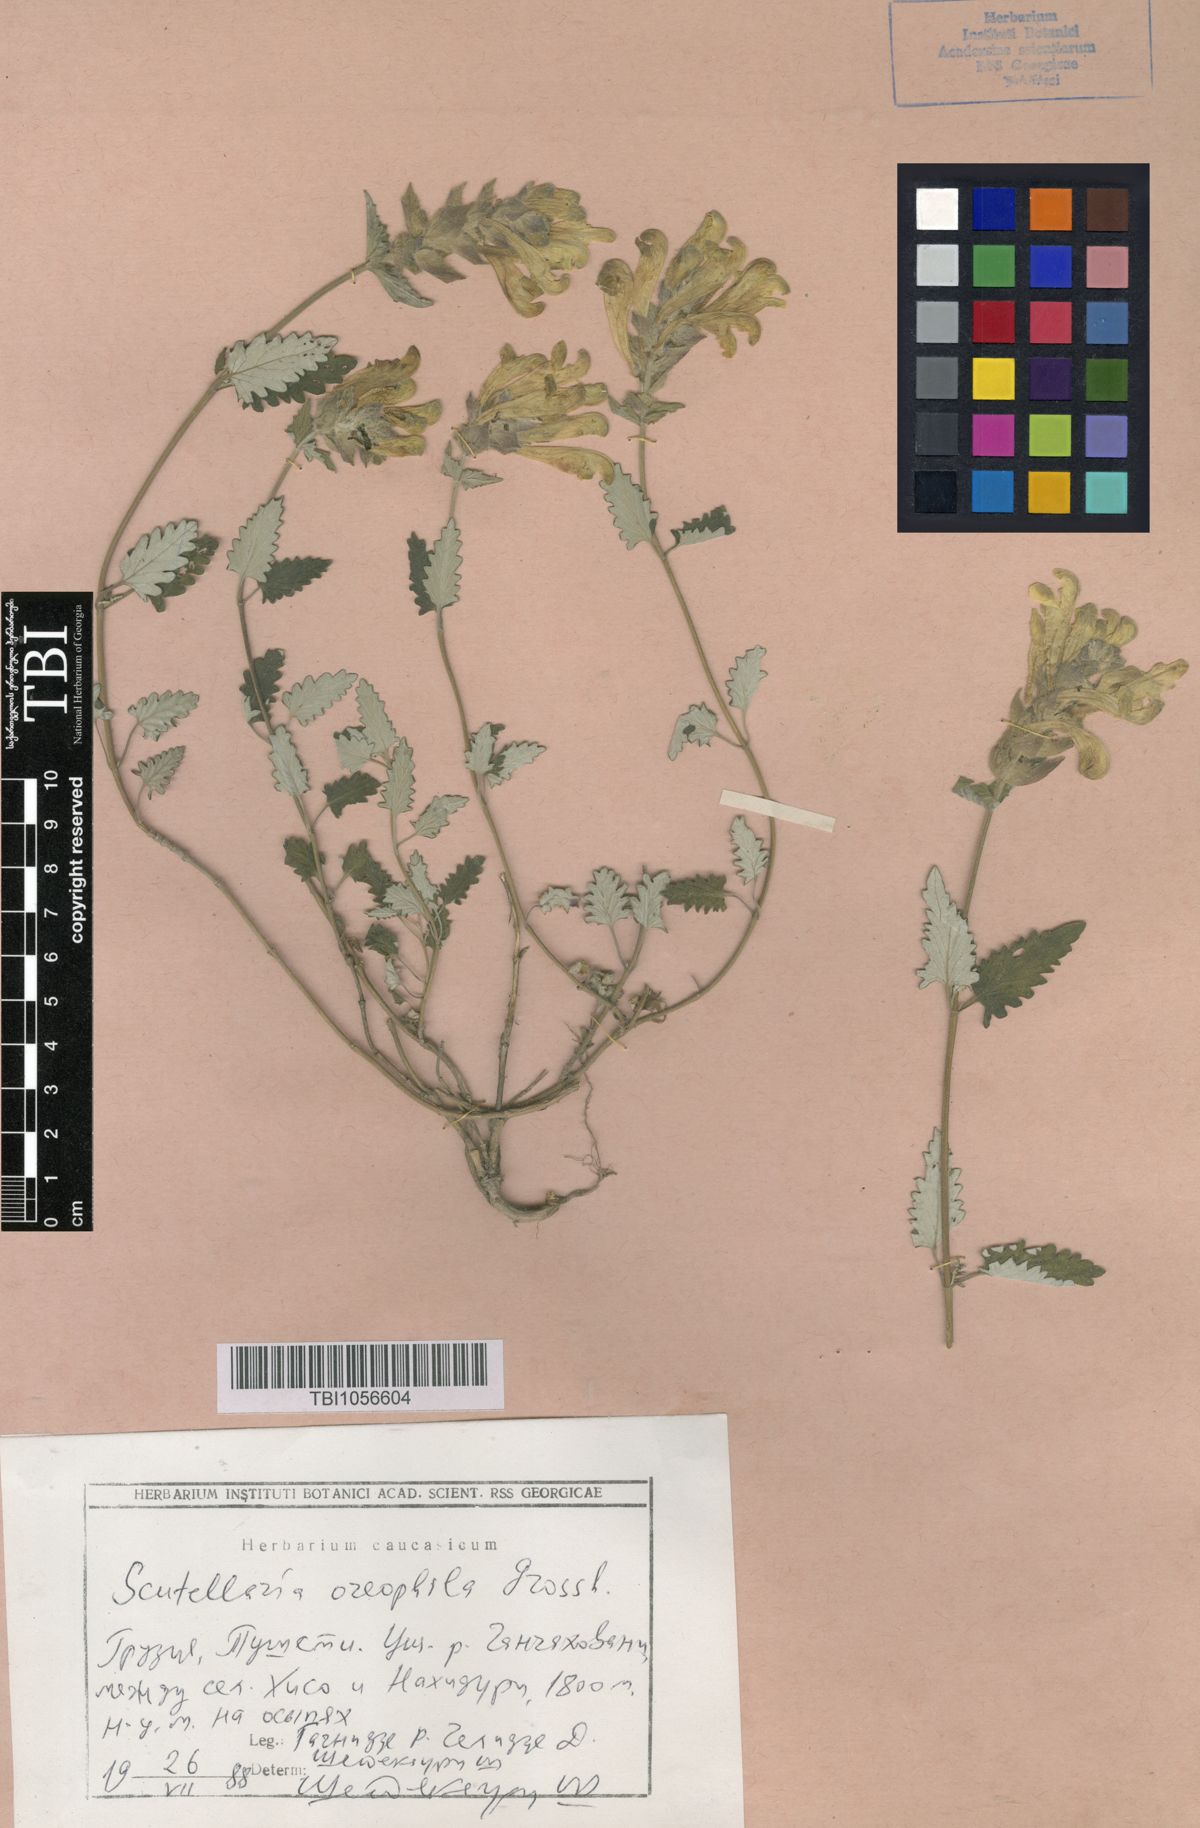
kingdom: Plantae
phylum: Tracheophyta
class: Magnoliopsida
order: Lamiales
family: Lamiaceae
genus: Scutellaria
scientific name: Scutellaria oreophila
